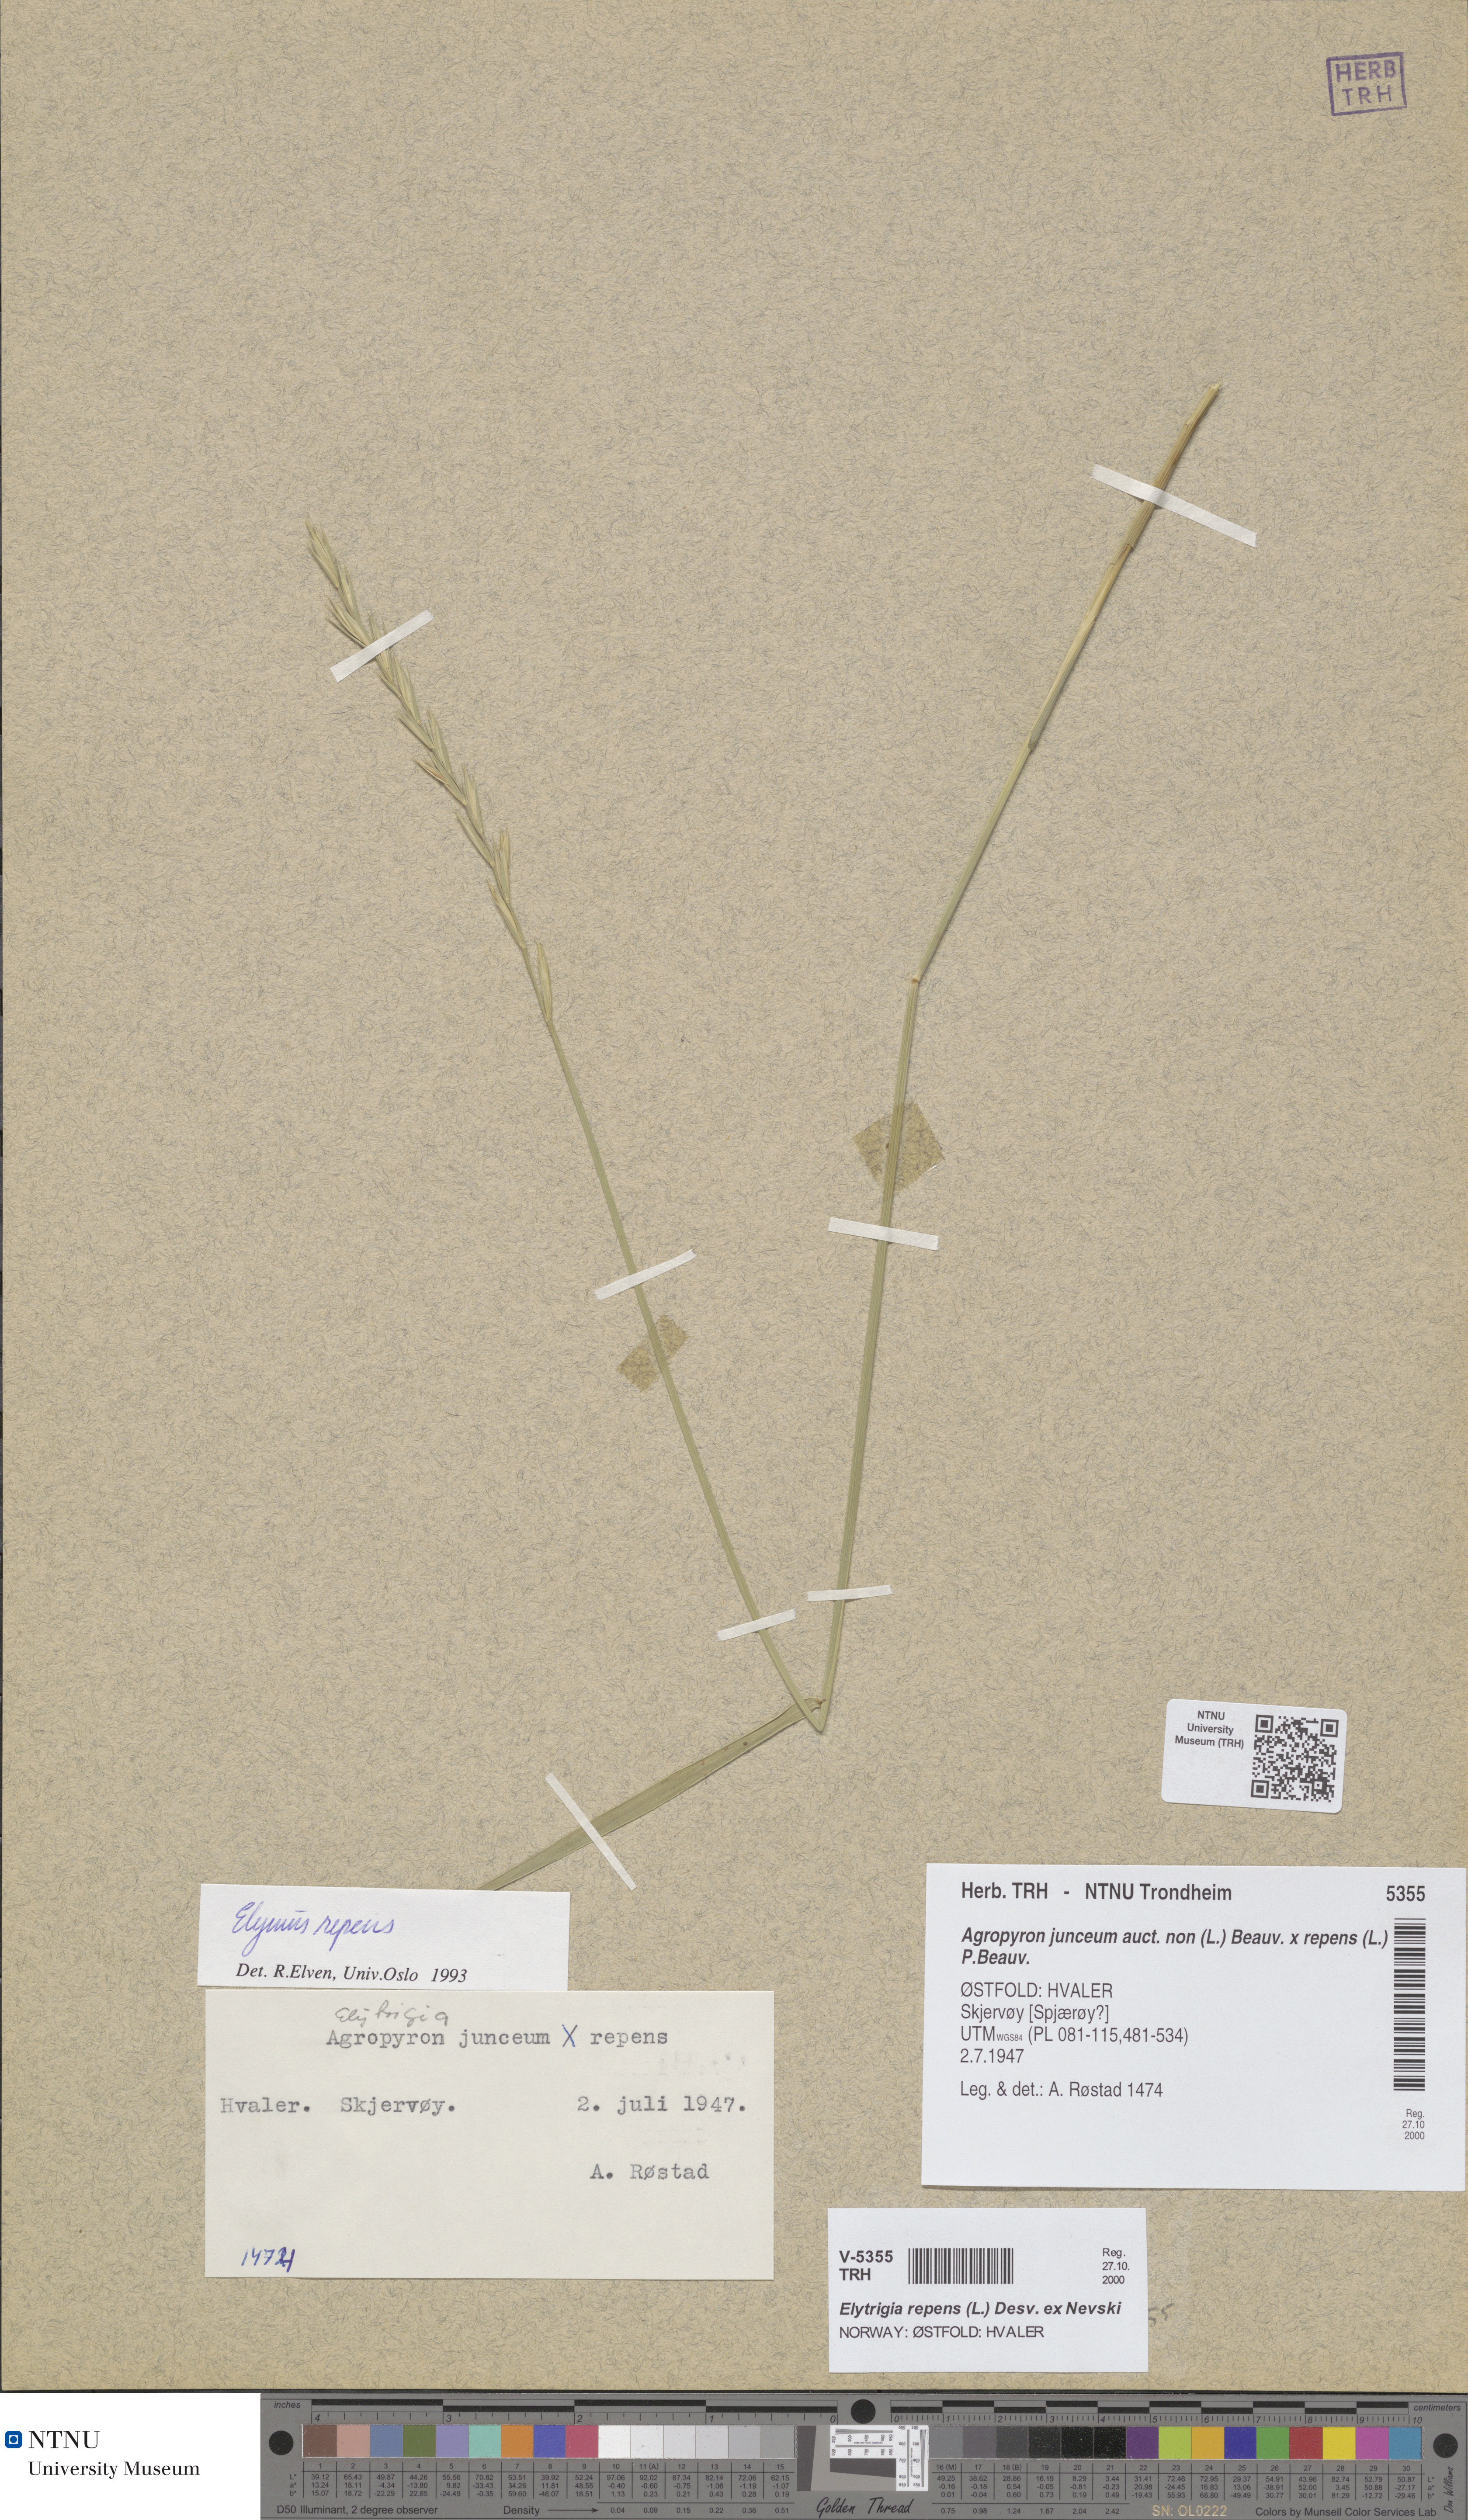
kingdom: Plantae
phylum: Tracheophyta
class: Liliopsida
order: Poales
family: Poaceae
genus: Elymus
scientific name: Elymus repens
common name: Quackgrass
